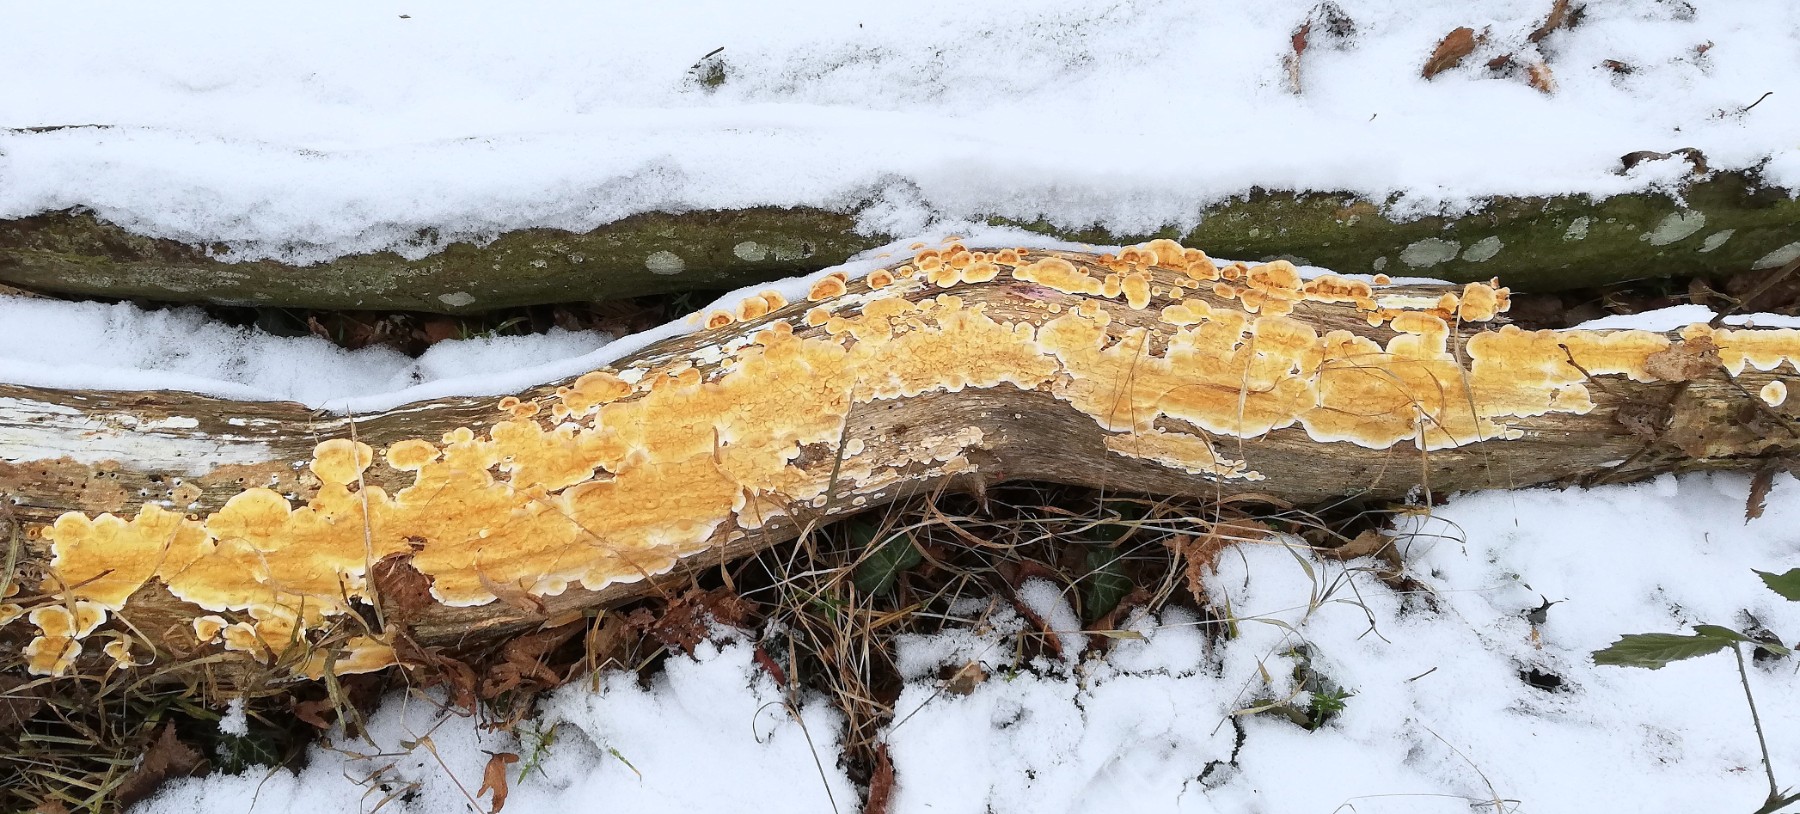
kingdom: Fungi
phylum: Basidiomycota
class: Agaricomycetes
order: Russulales
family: Stereaceae
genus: Stereum
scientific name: Stereum hirsutum
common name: håret lædersvamp
